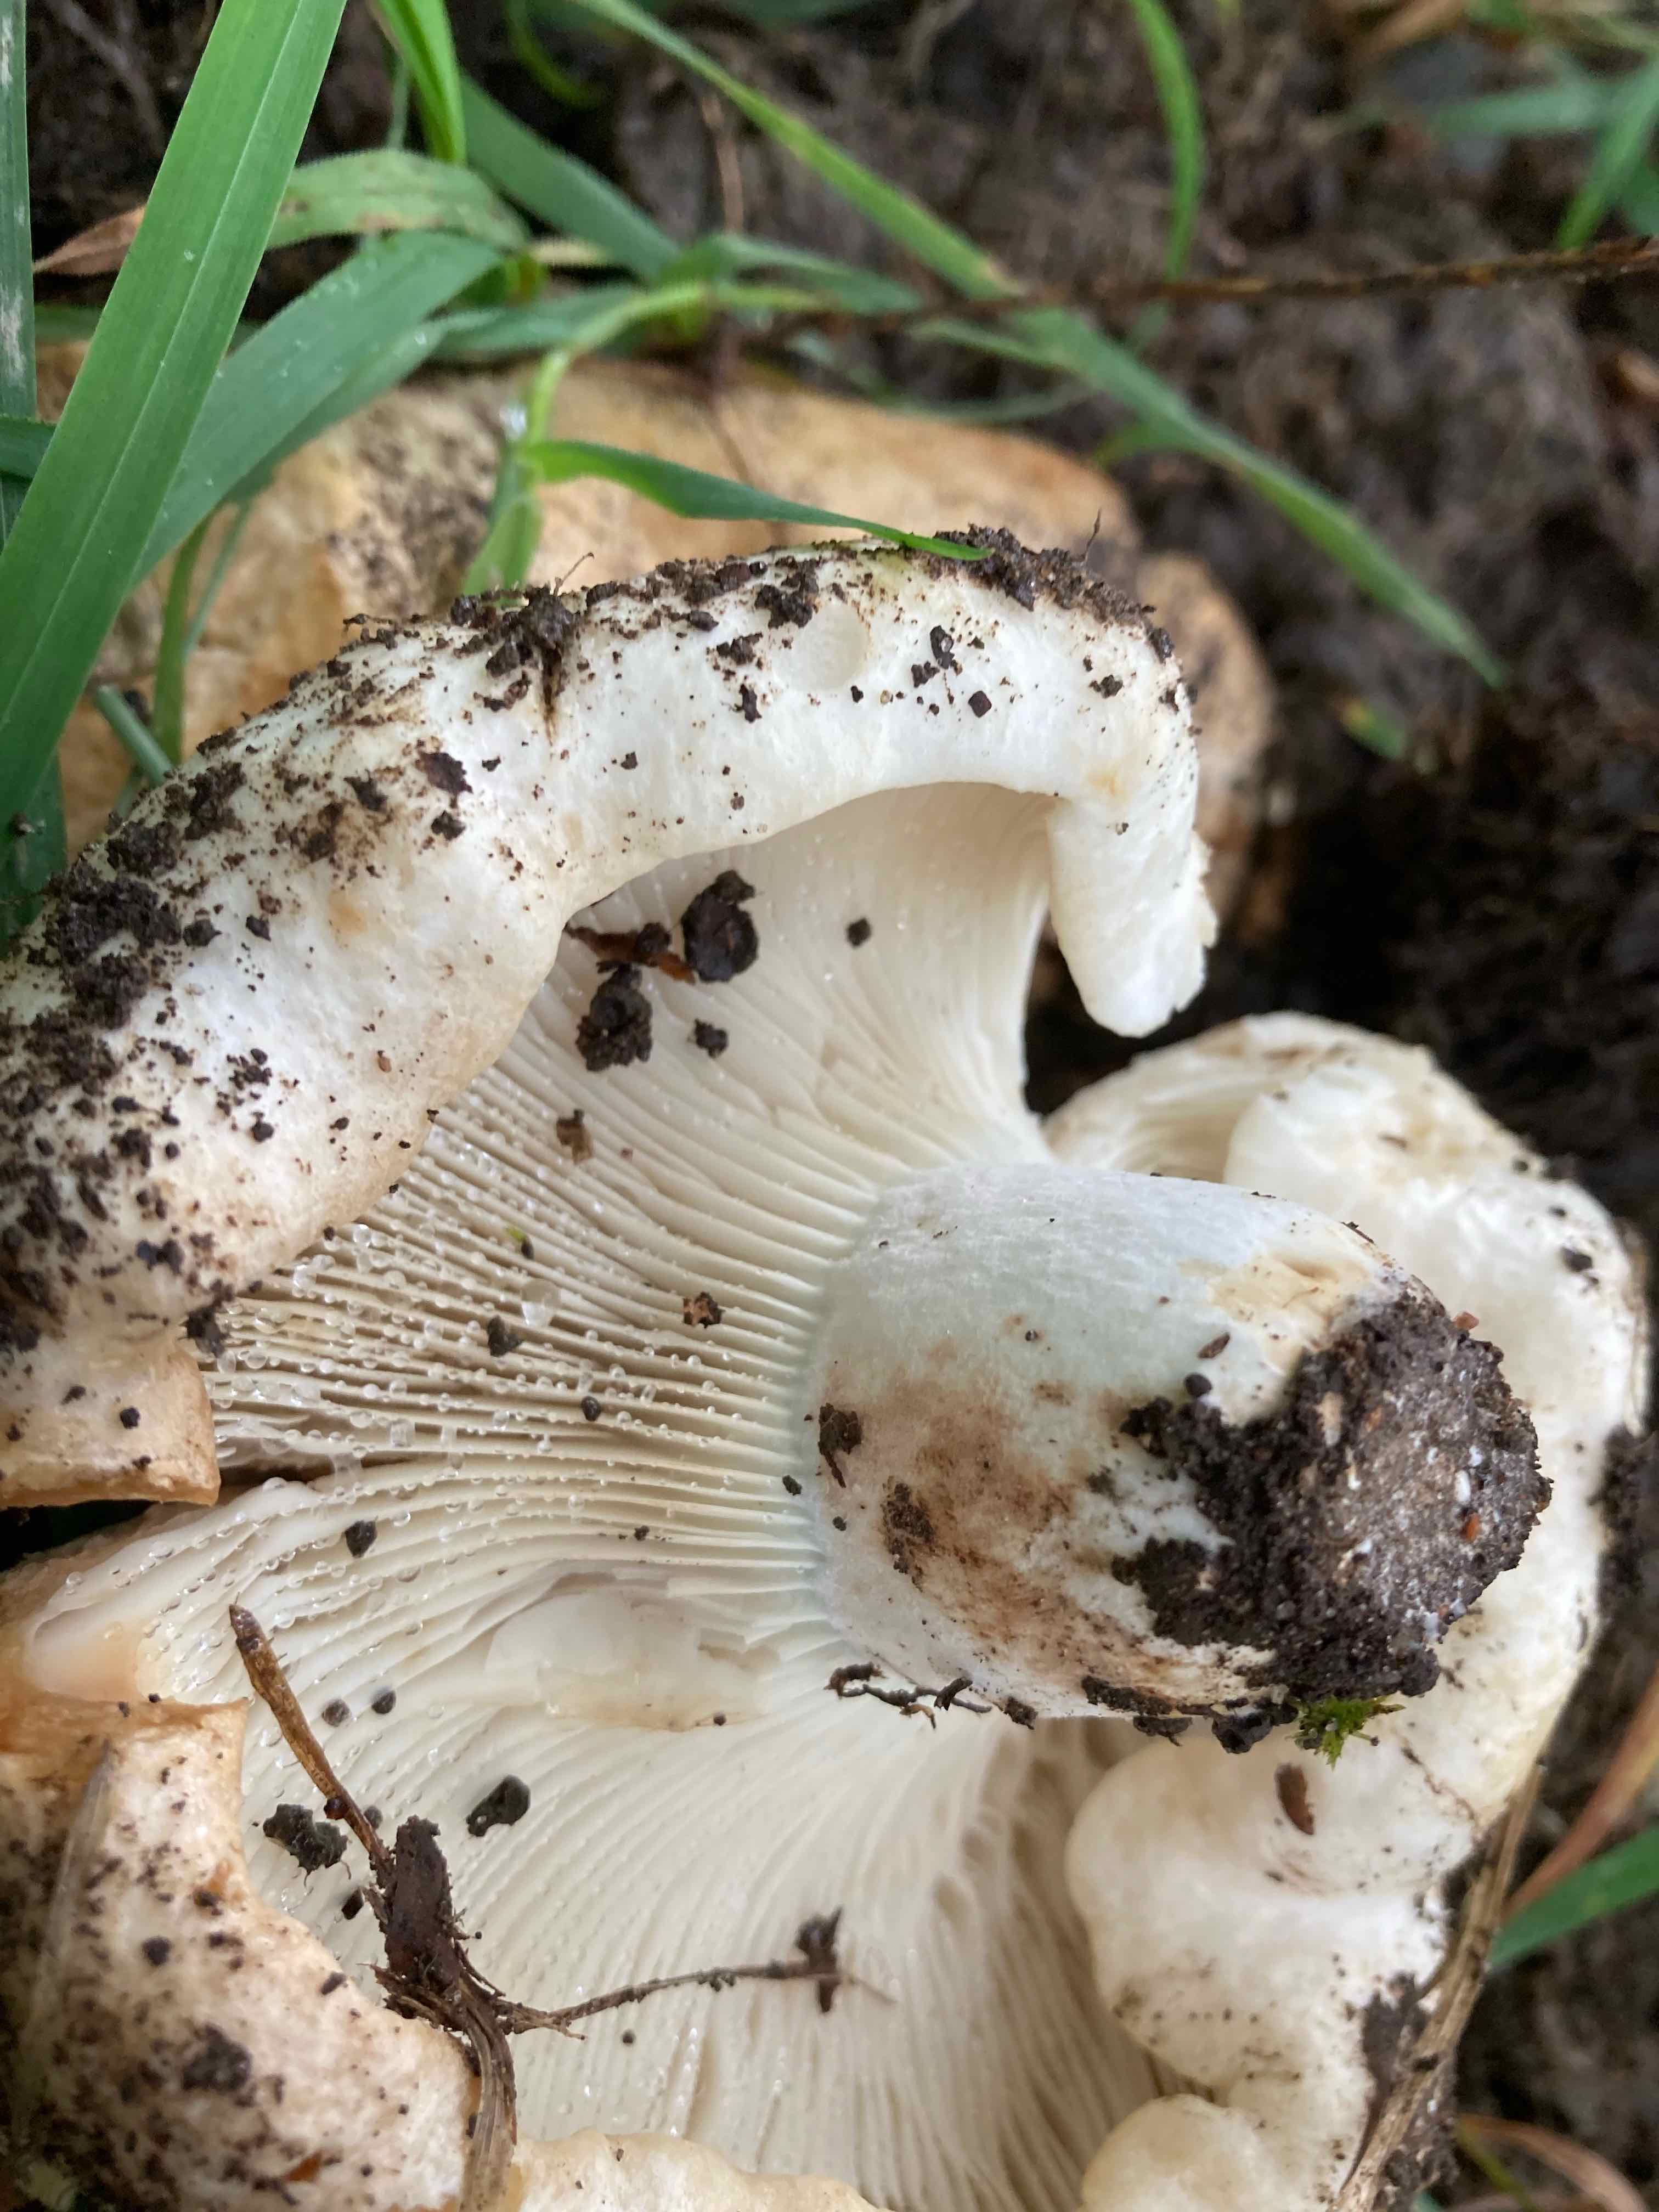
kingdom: Fungi
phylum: Basidiomycota
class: Agaricomycetes
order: Russulales
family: Russulaceae
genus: Russula
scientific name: Russula delica
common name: almindelig tragt-skørhat
